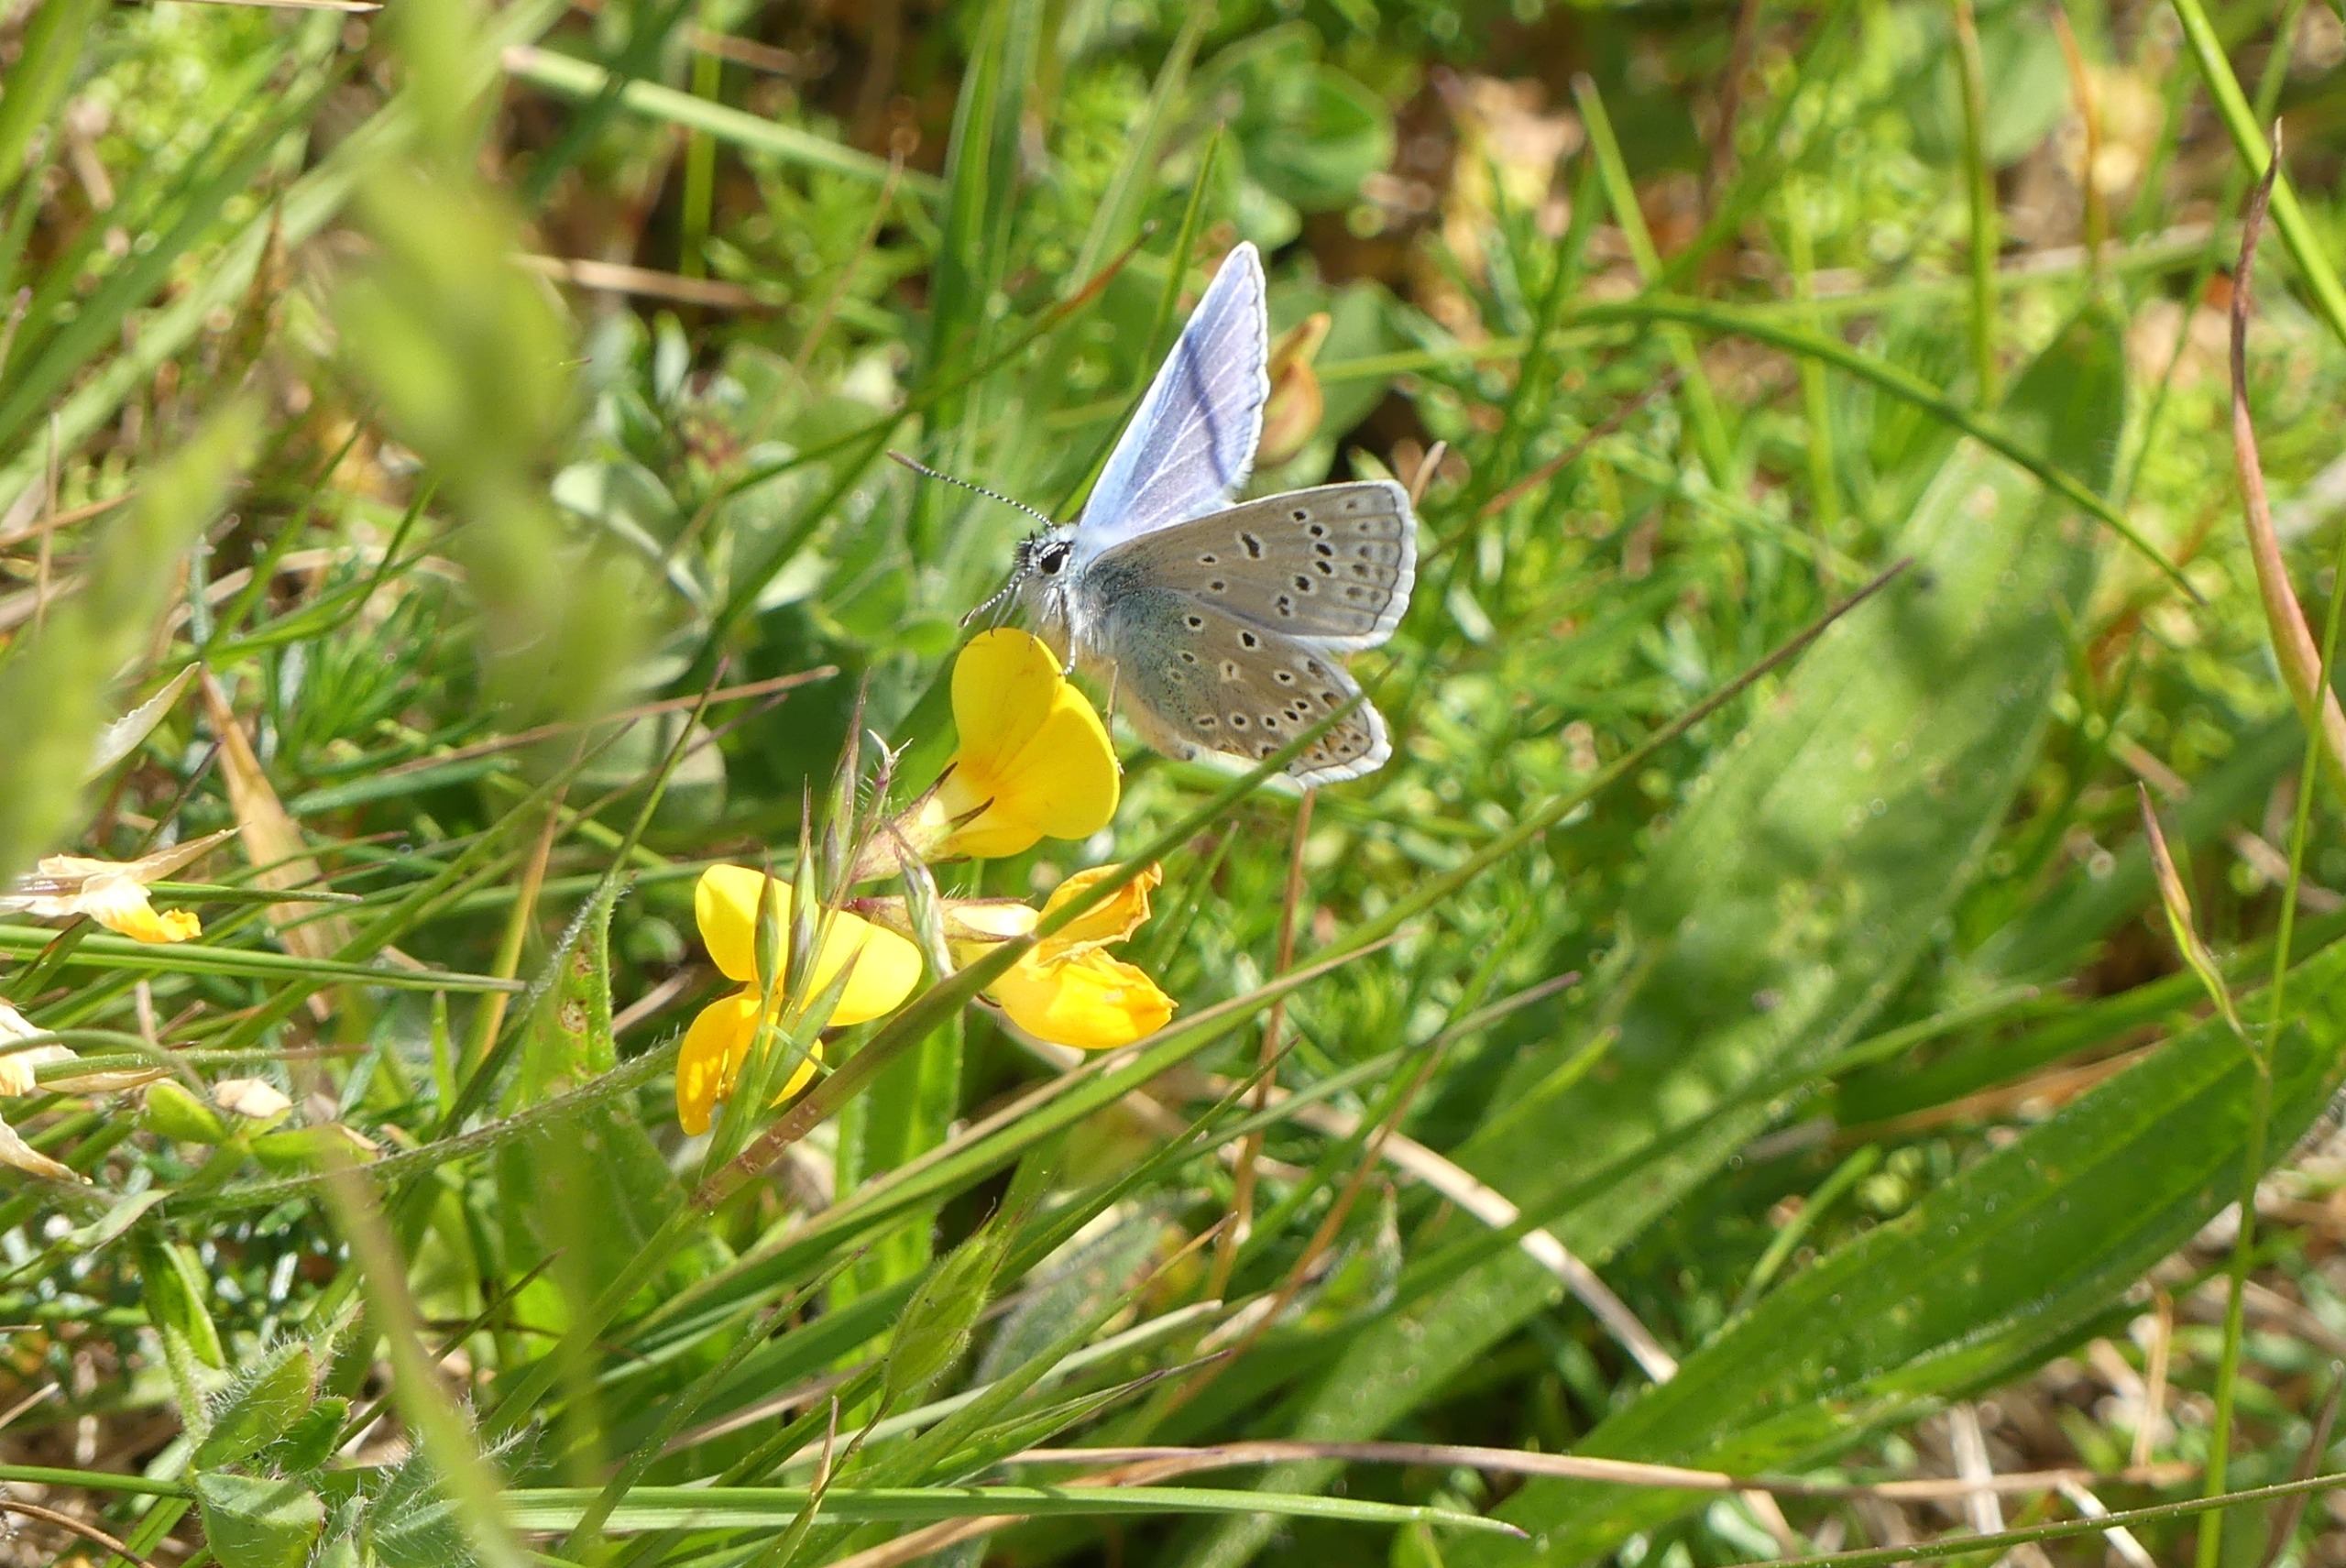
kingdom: Animalia
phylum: Arthropoda
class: Insecta
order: Lepidoptera
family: Lycaenidae
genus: Polyommatus
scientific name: Polyommatus icarus
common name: Almindelig blåfugl
